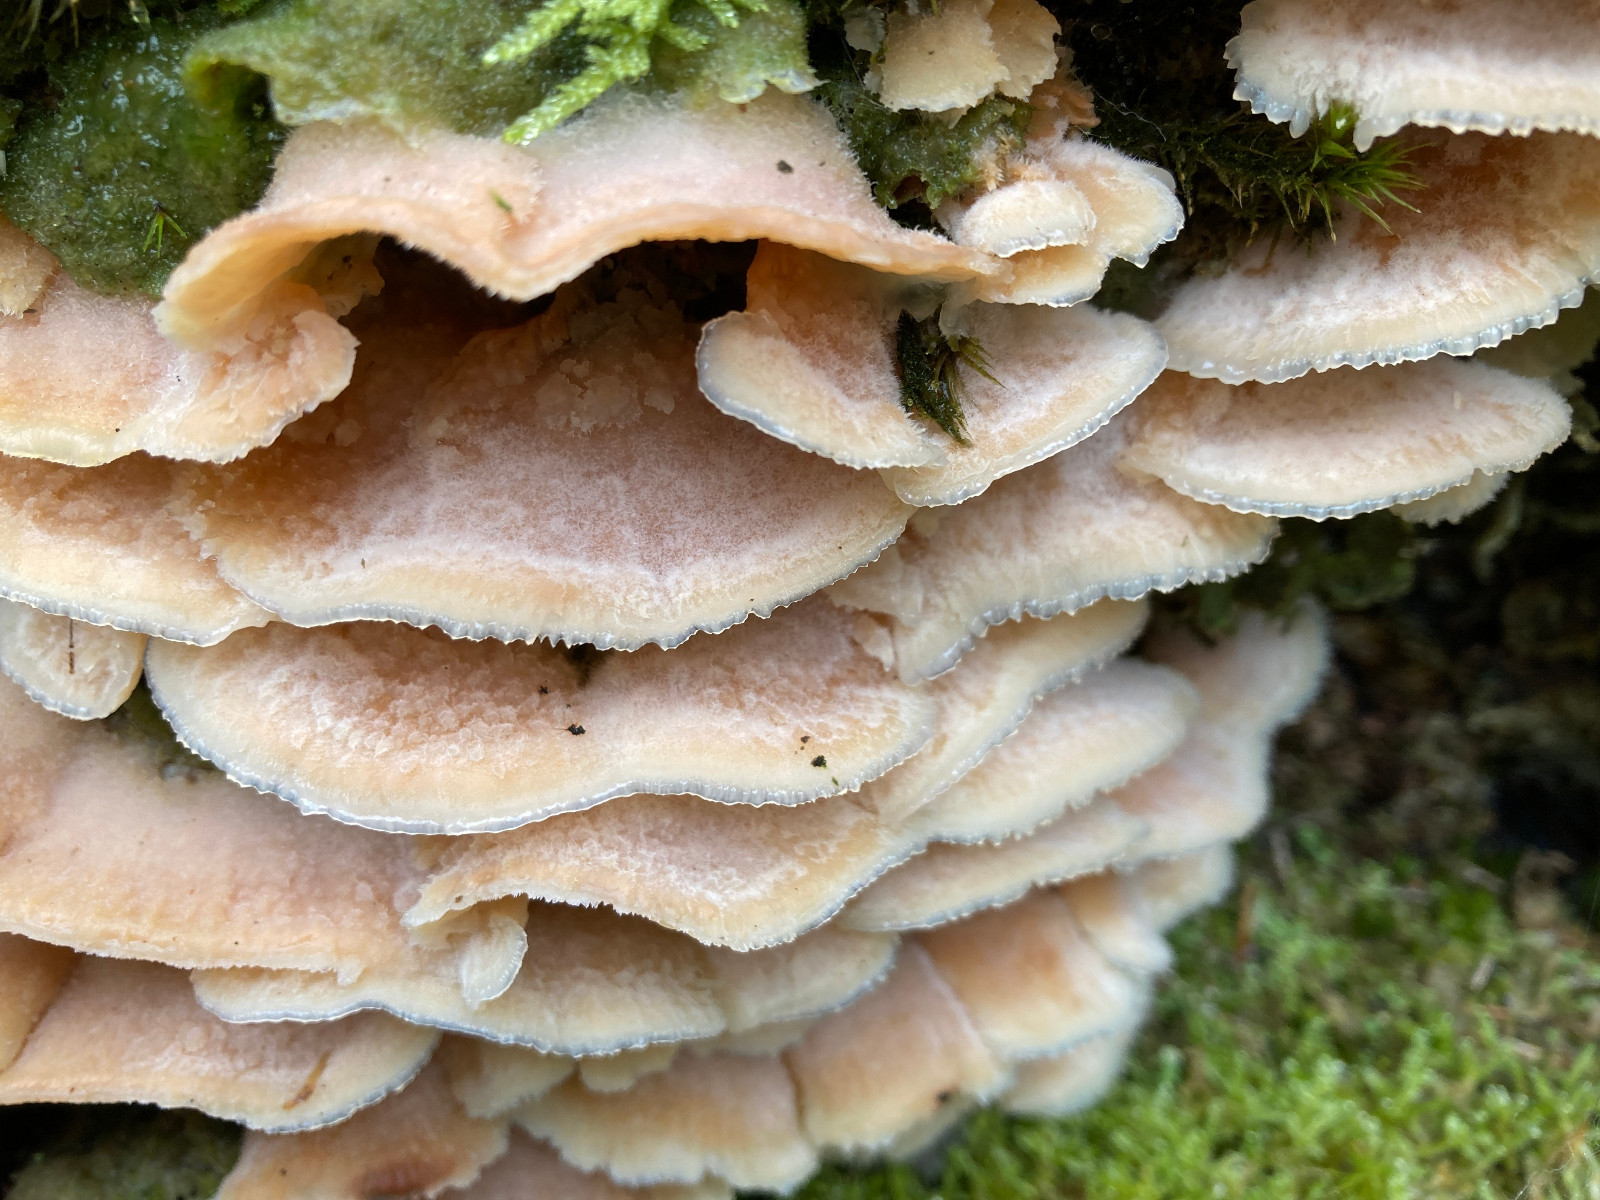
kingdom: Fungi
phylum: Basidiomycota
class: Agaricomycetes
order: Polyporales
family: Meruliaceae
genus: Phlebia
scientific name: Phlebia tremellosa
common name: bævrende åresvamp
